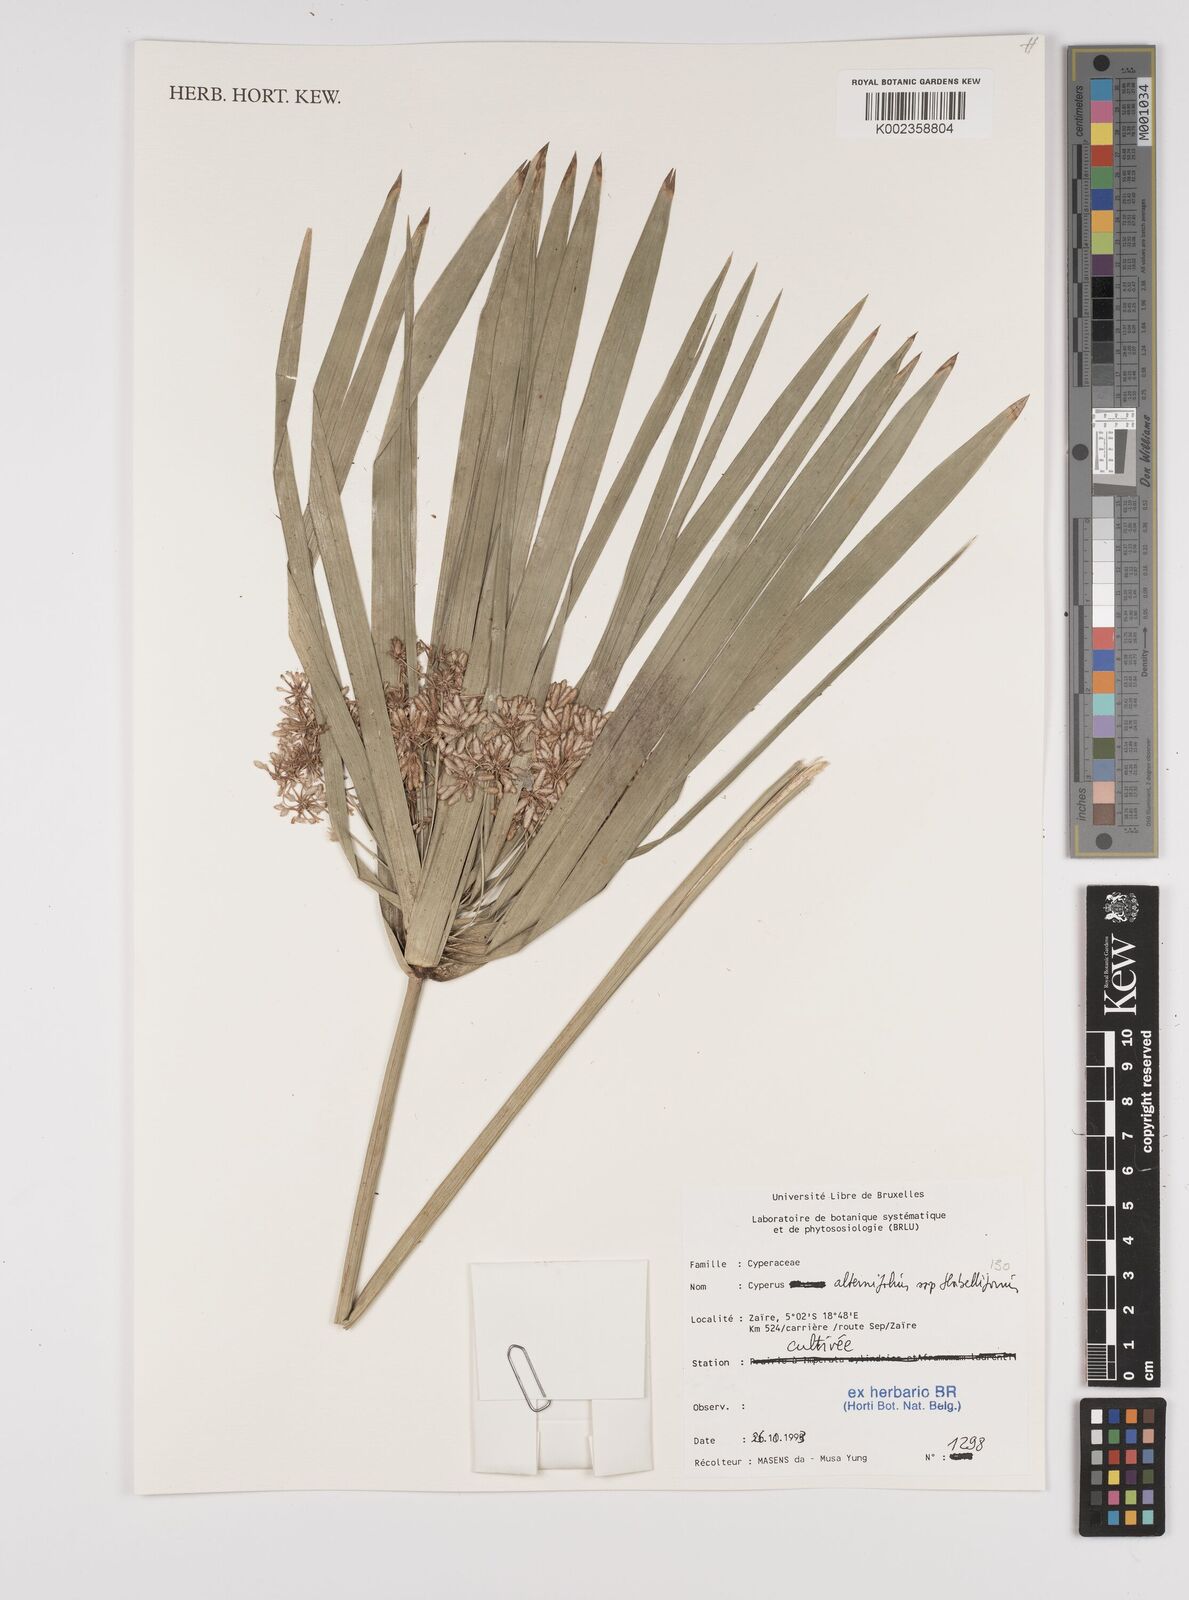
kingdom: Plantae
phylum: Tracheophyta
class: Liliopsida
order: Poales
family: Cyperaceae
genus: Cyperus
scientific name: Cyperus alternifolius
